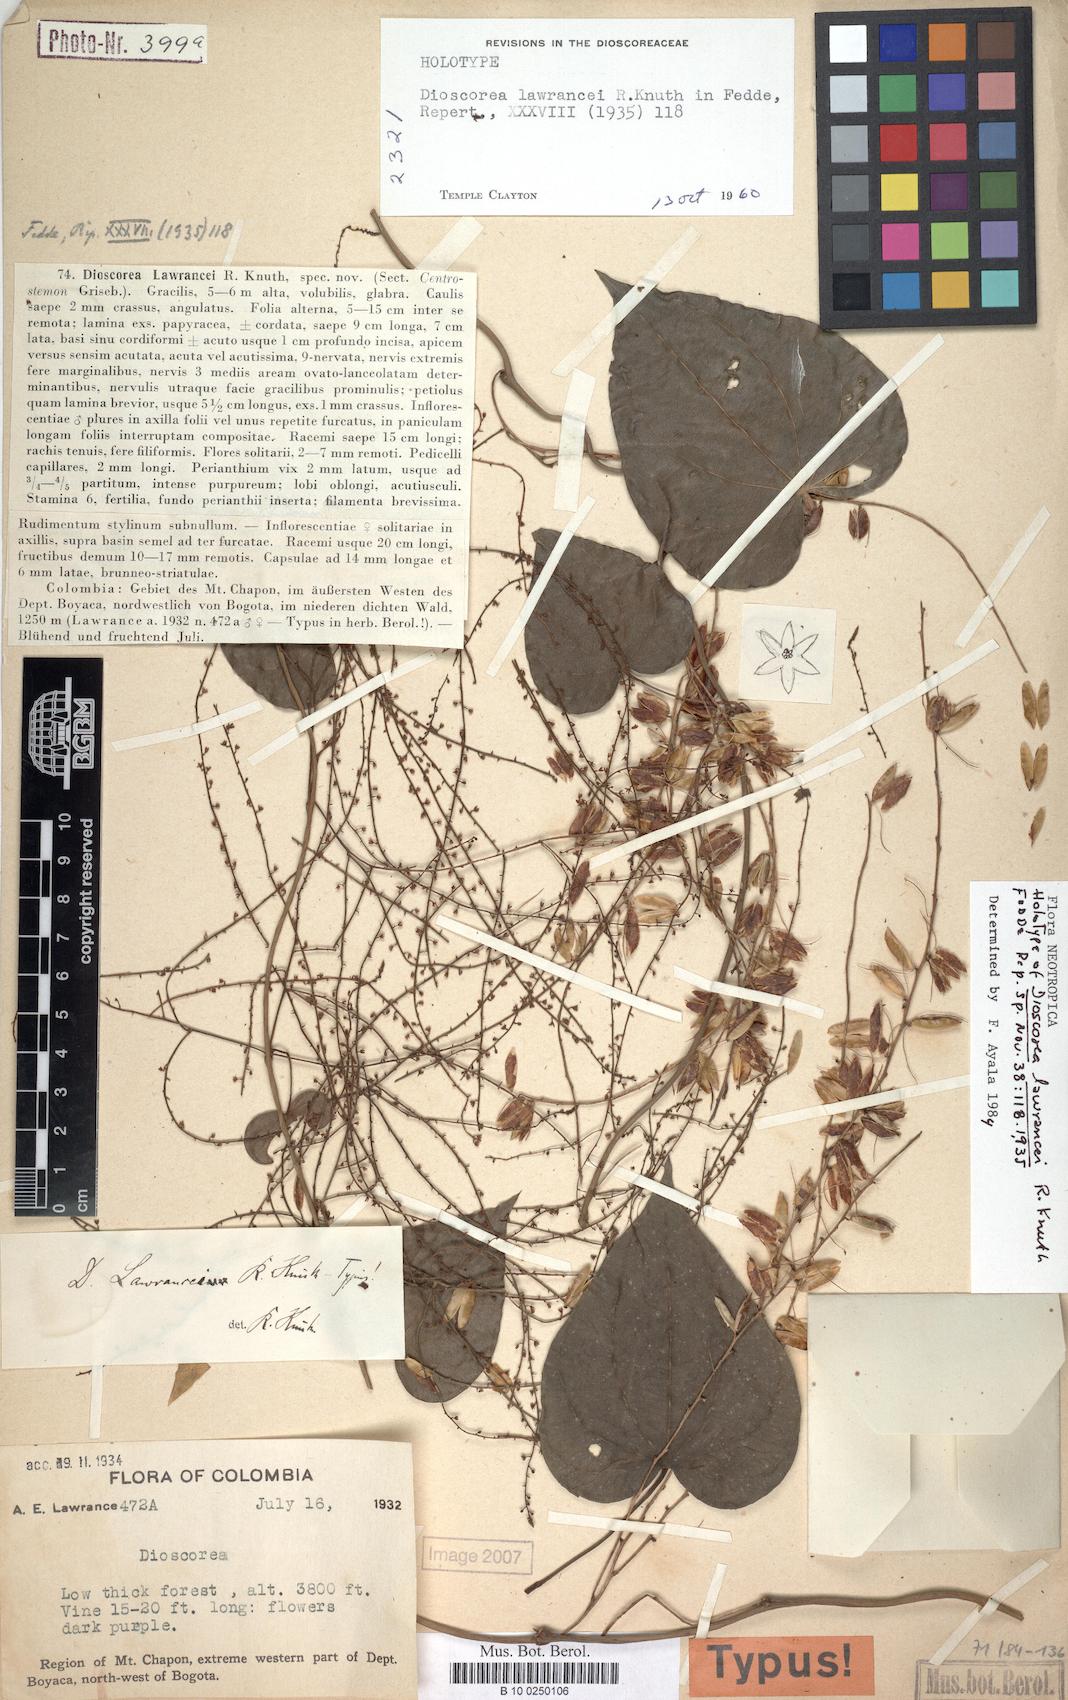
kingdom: Plantae
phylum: Tracheophyta
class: Liliopsida
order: Dioscoreales
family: Dioscoreaceae
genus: Dioscorea
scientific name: Dioscorea lawrancei
